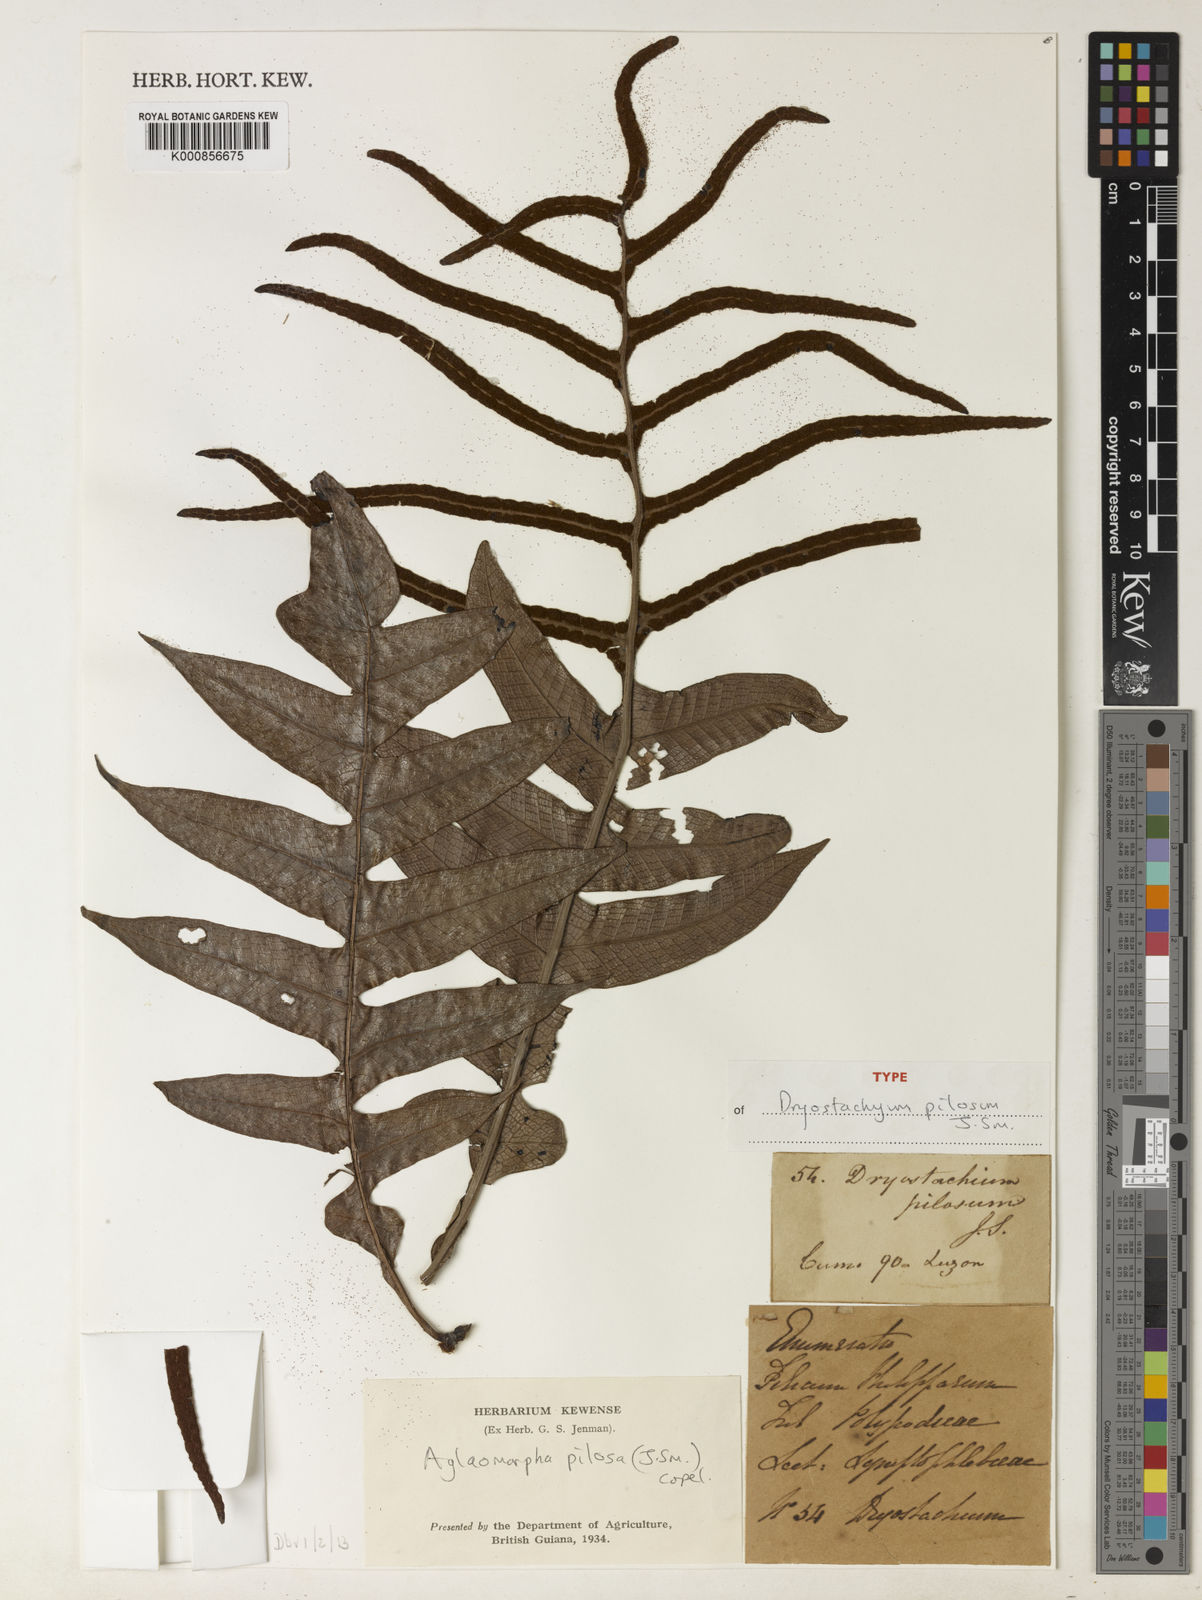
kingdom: Plantae
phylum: Tracheophyta
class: Polypodiopsida
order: Polypodiales
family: Polypodiaceae
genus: Drynaria
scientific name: Drynaria pilosa
